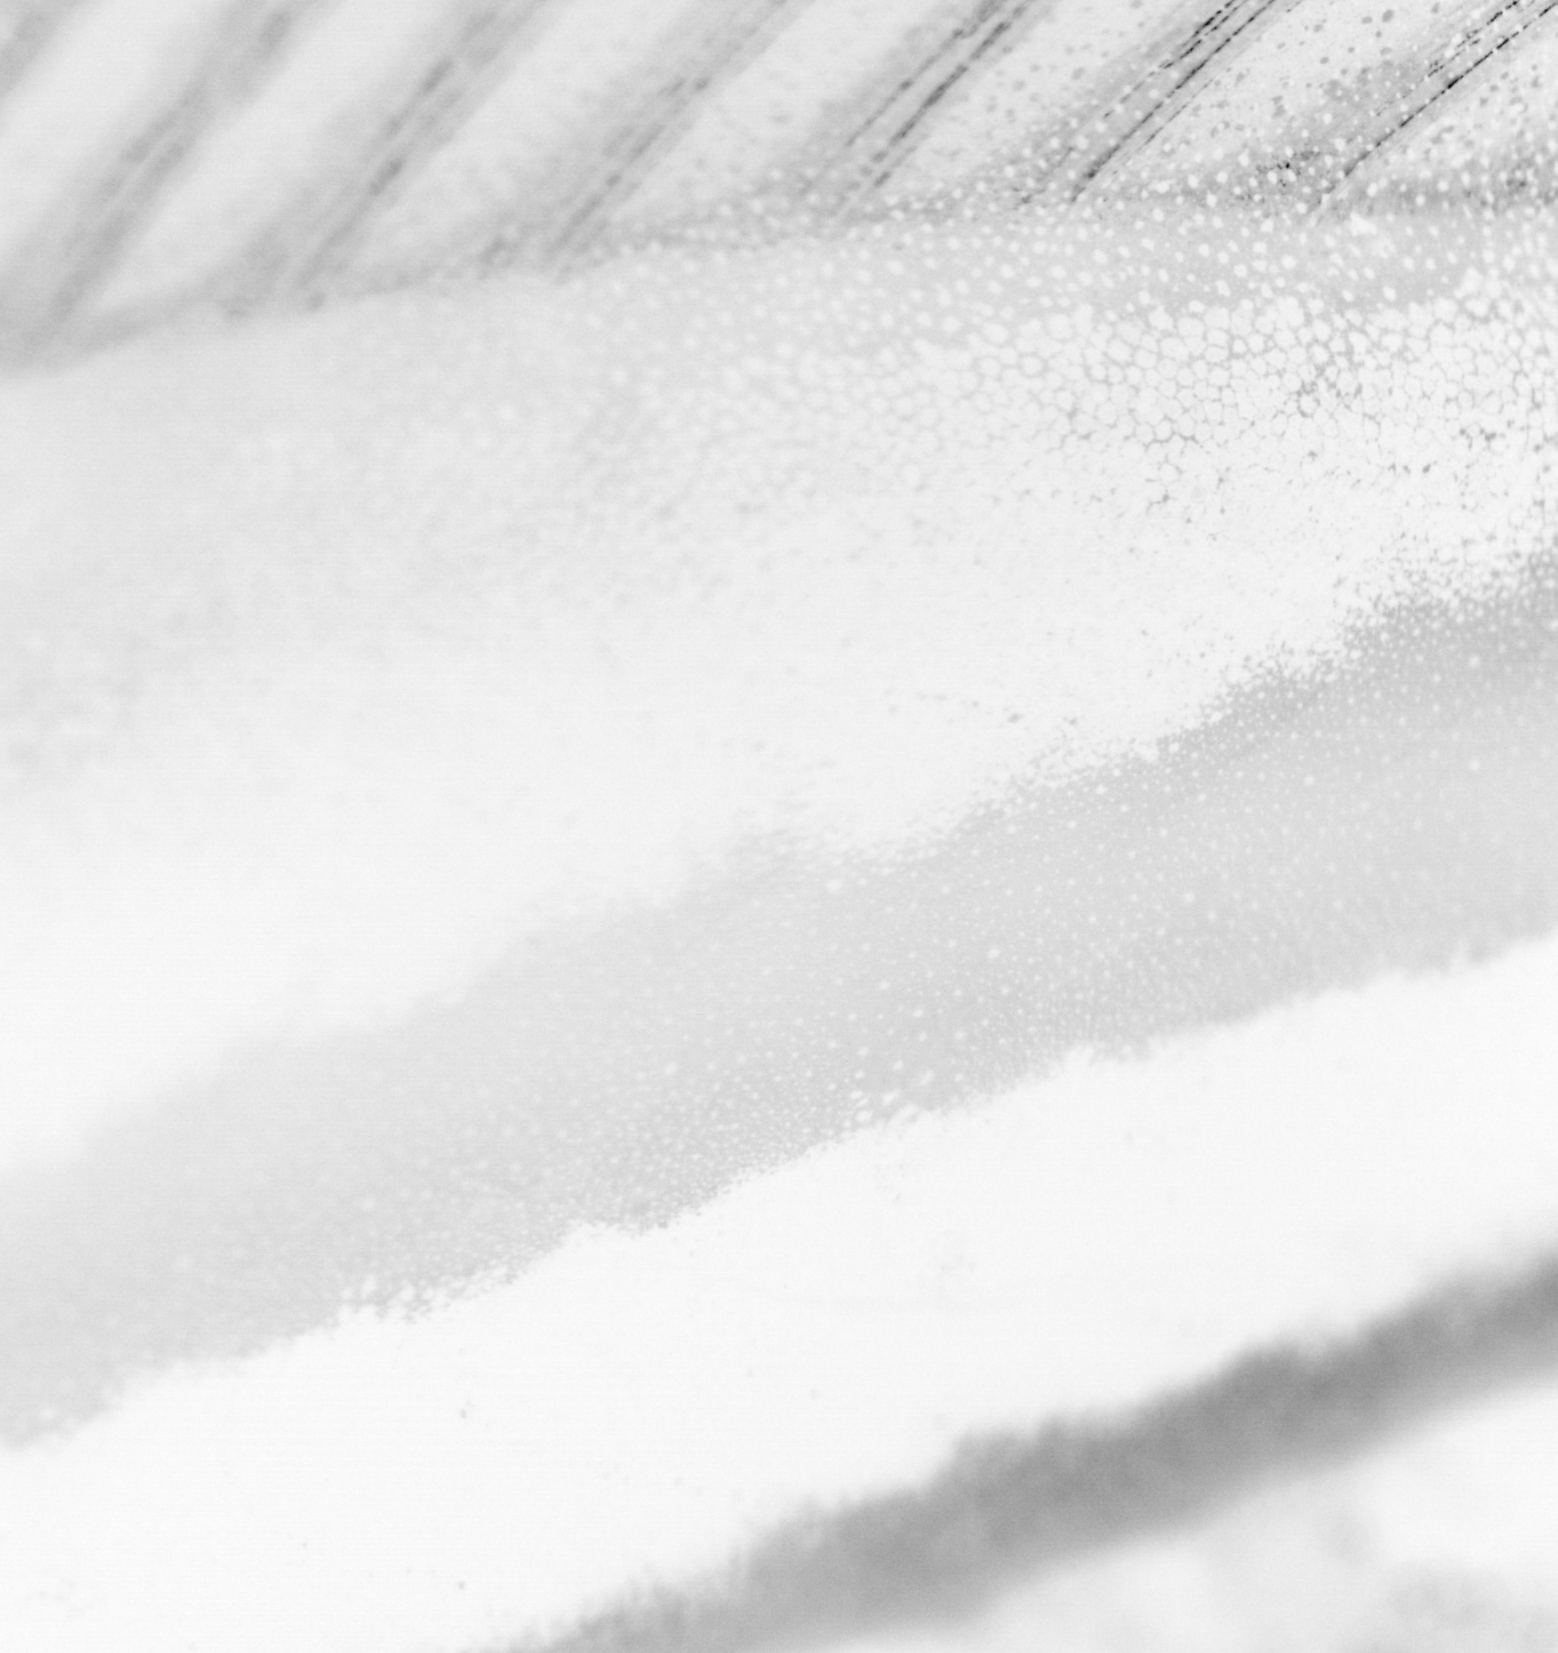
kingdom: Animalia
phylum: Chordata
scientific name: Chordata
